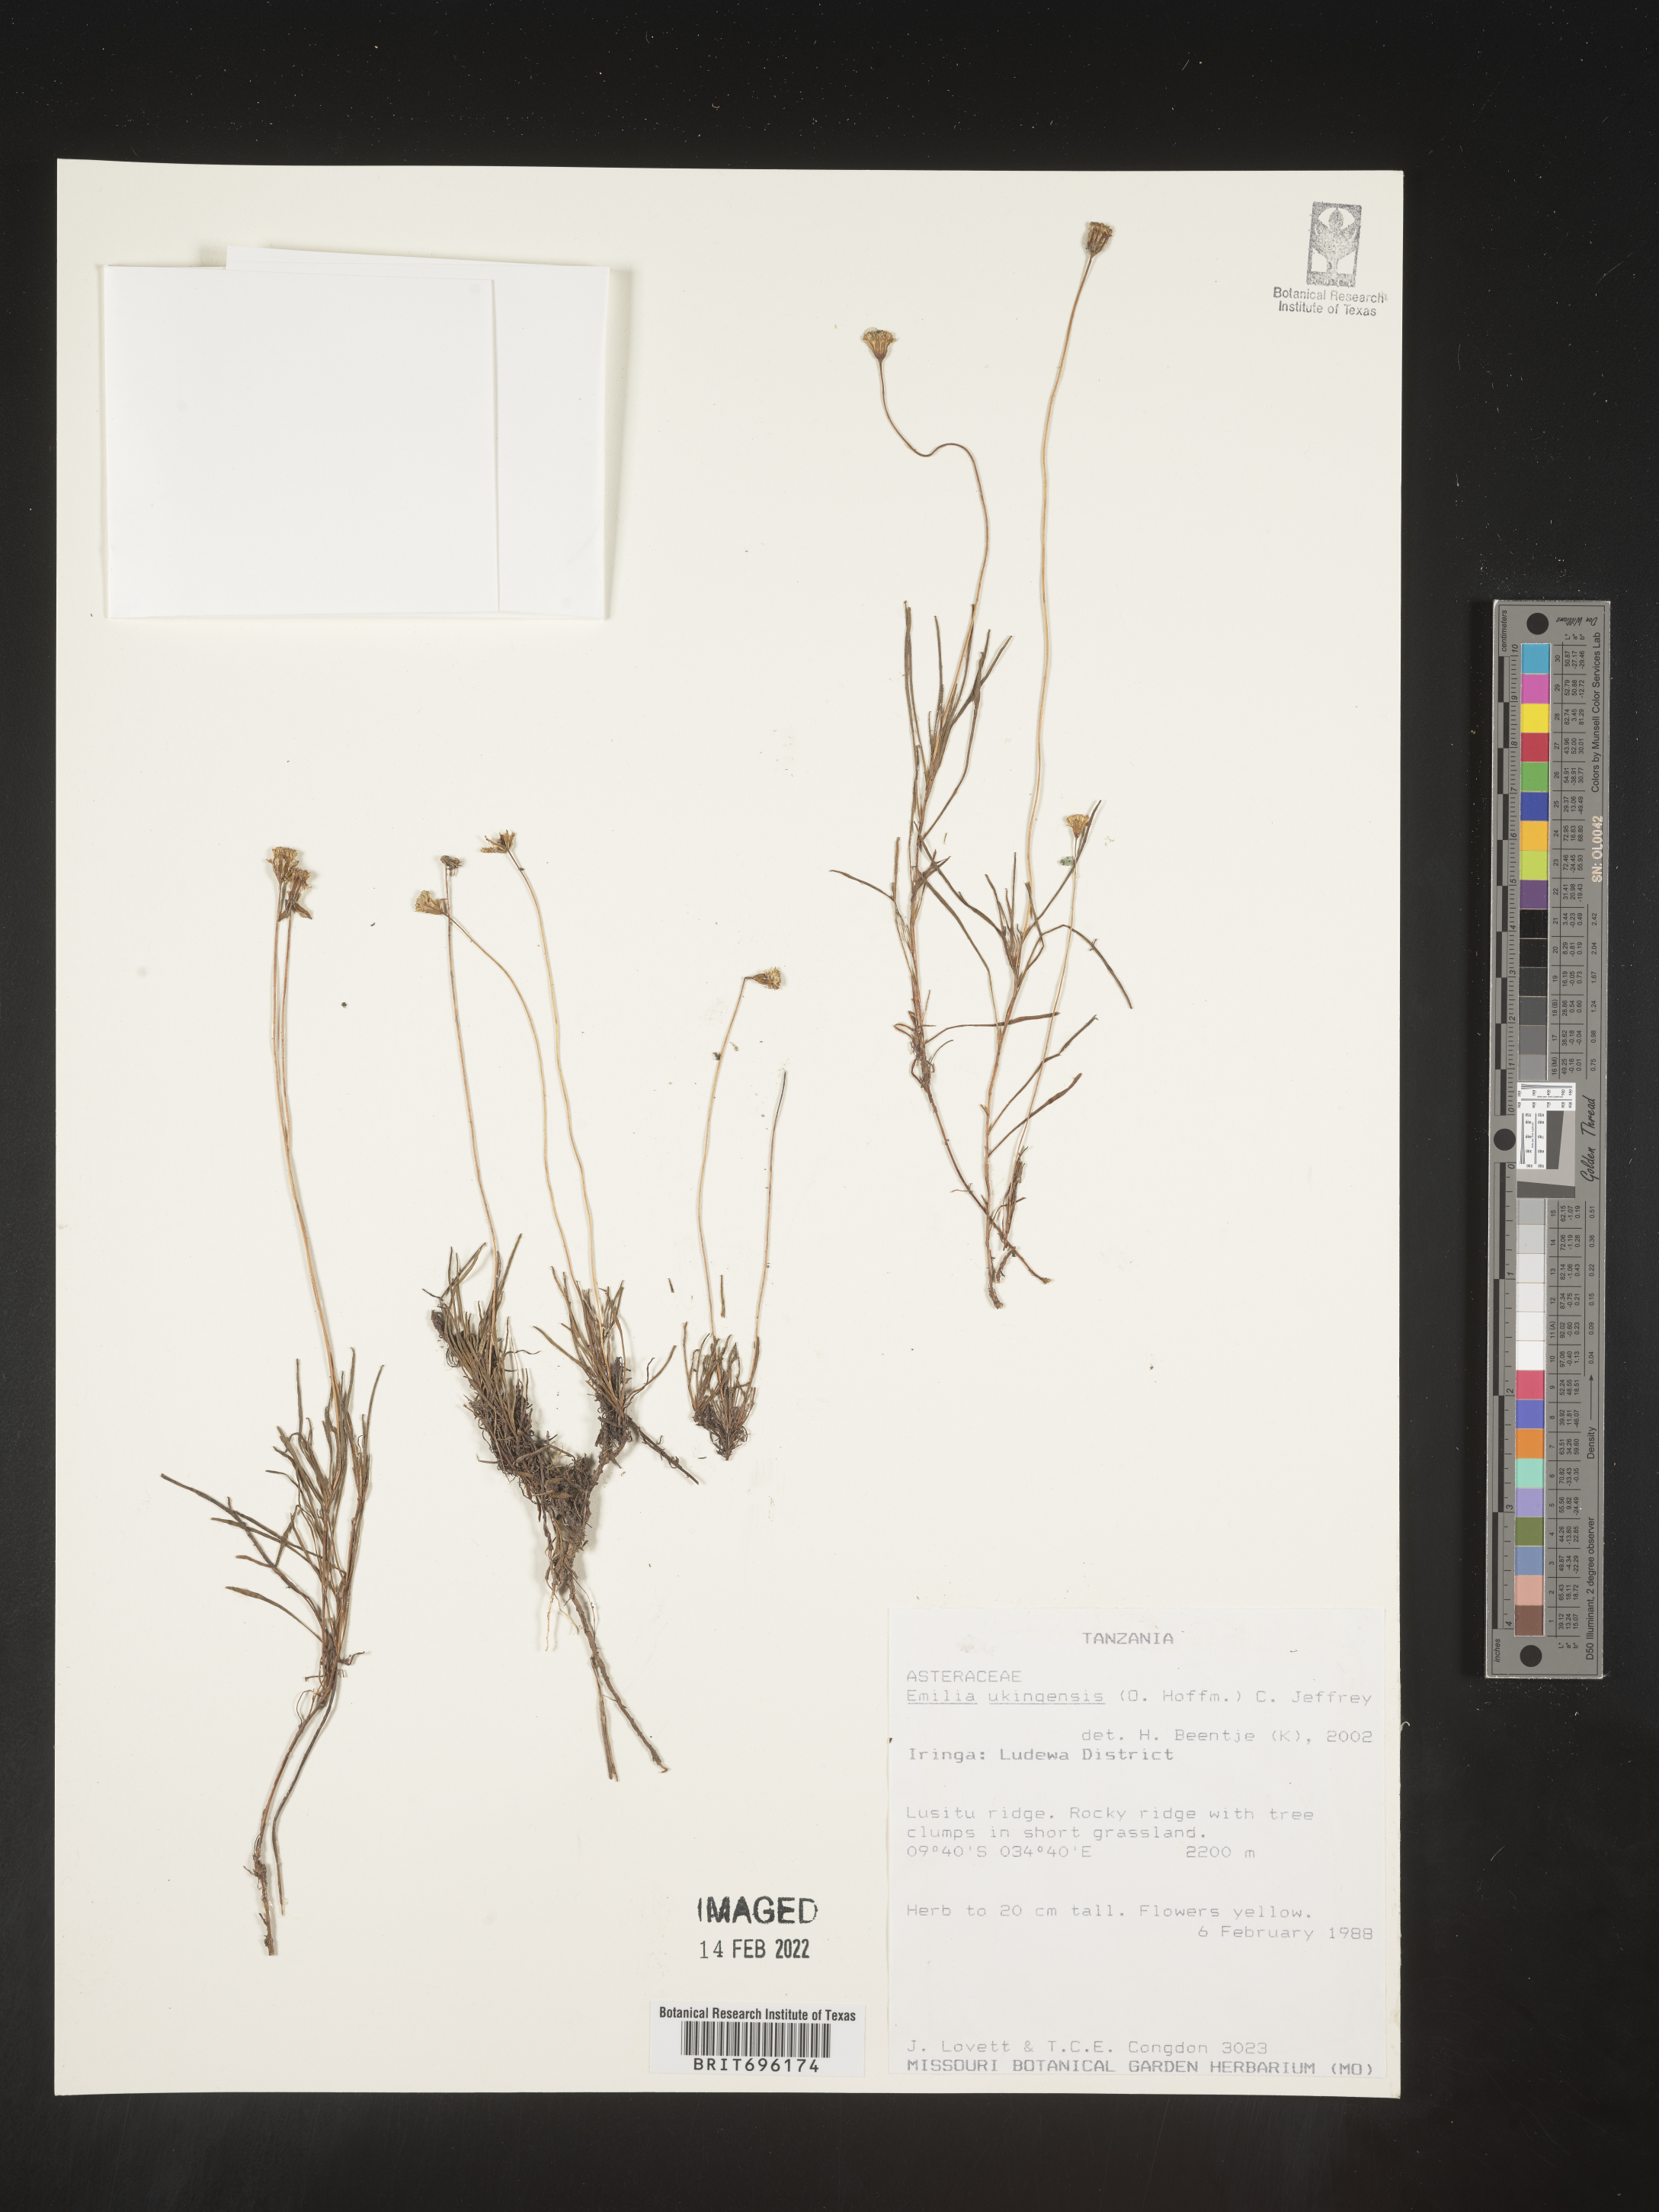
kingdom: Plantae
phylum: Tracheophyta
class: Magnoliopsida
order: Asterales
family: Asteraceae
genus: Emilia
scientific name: Emilia
